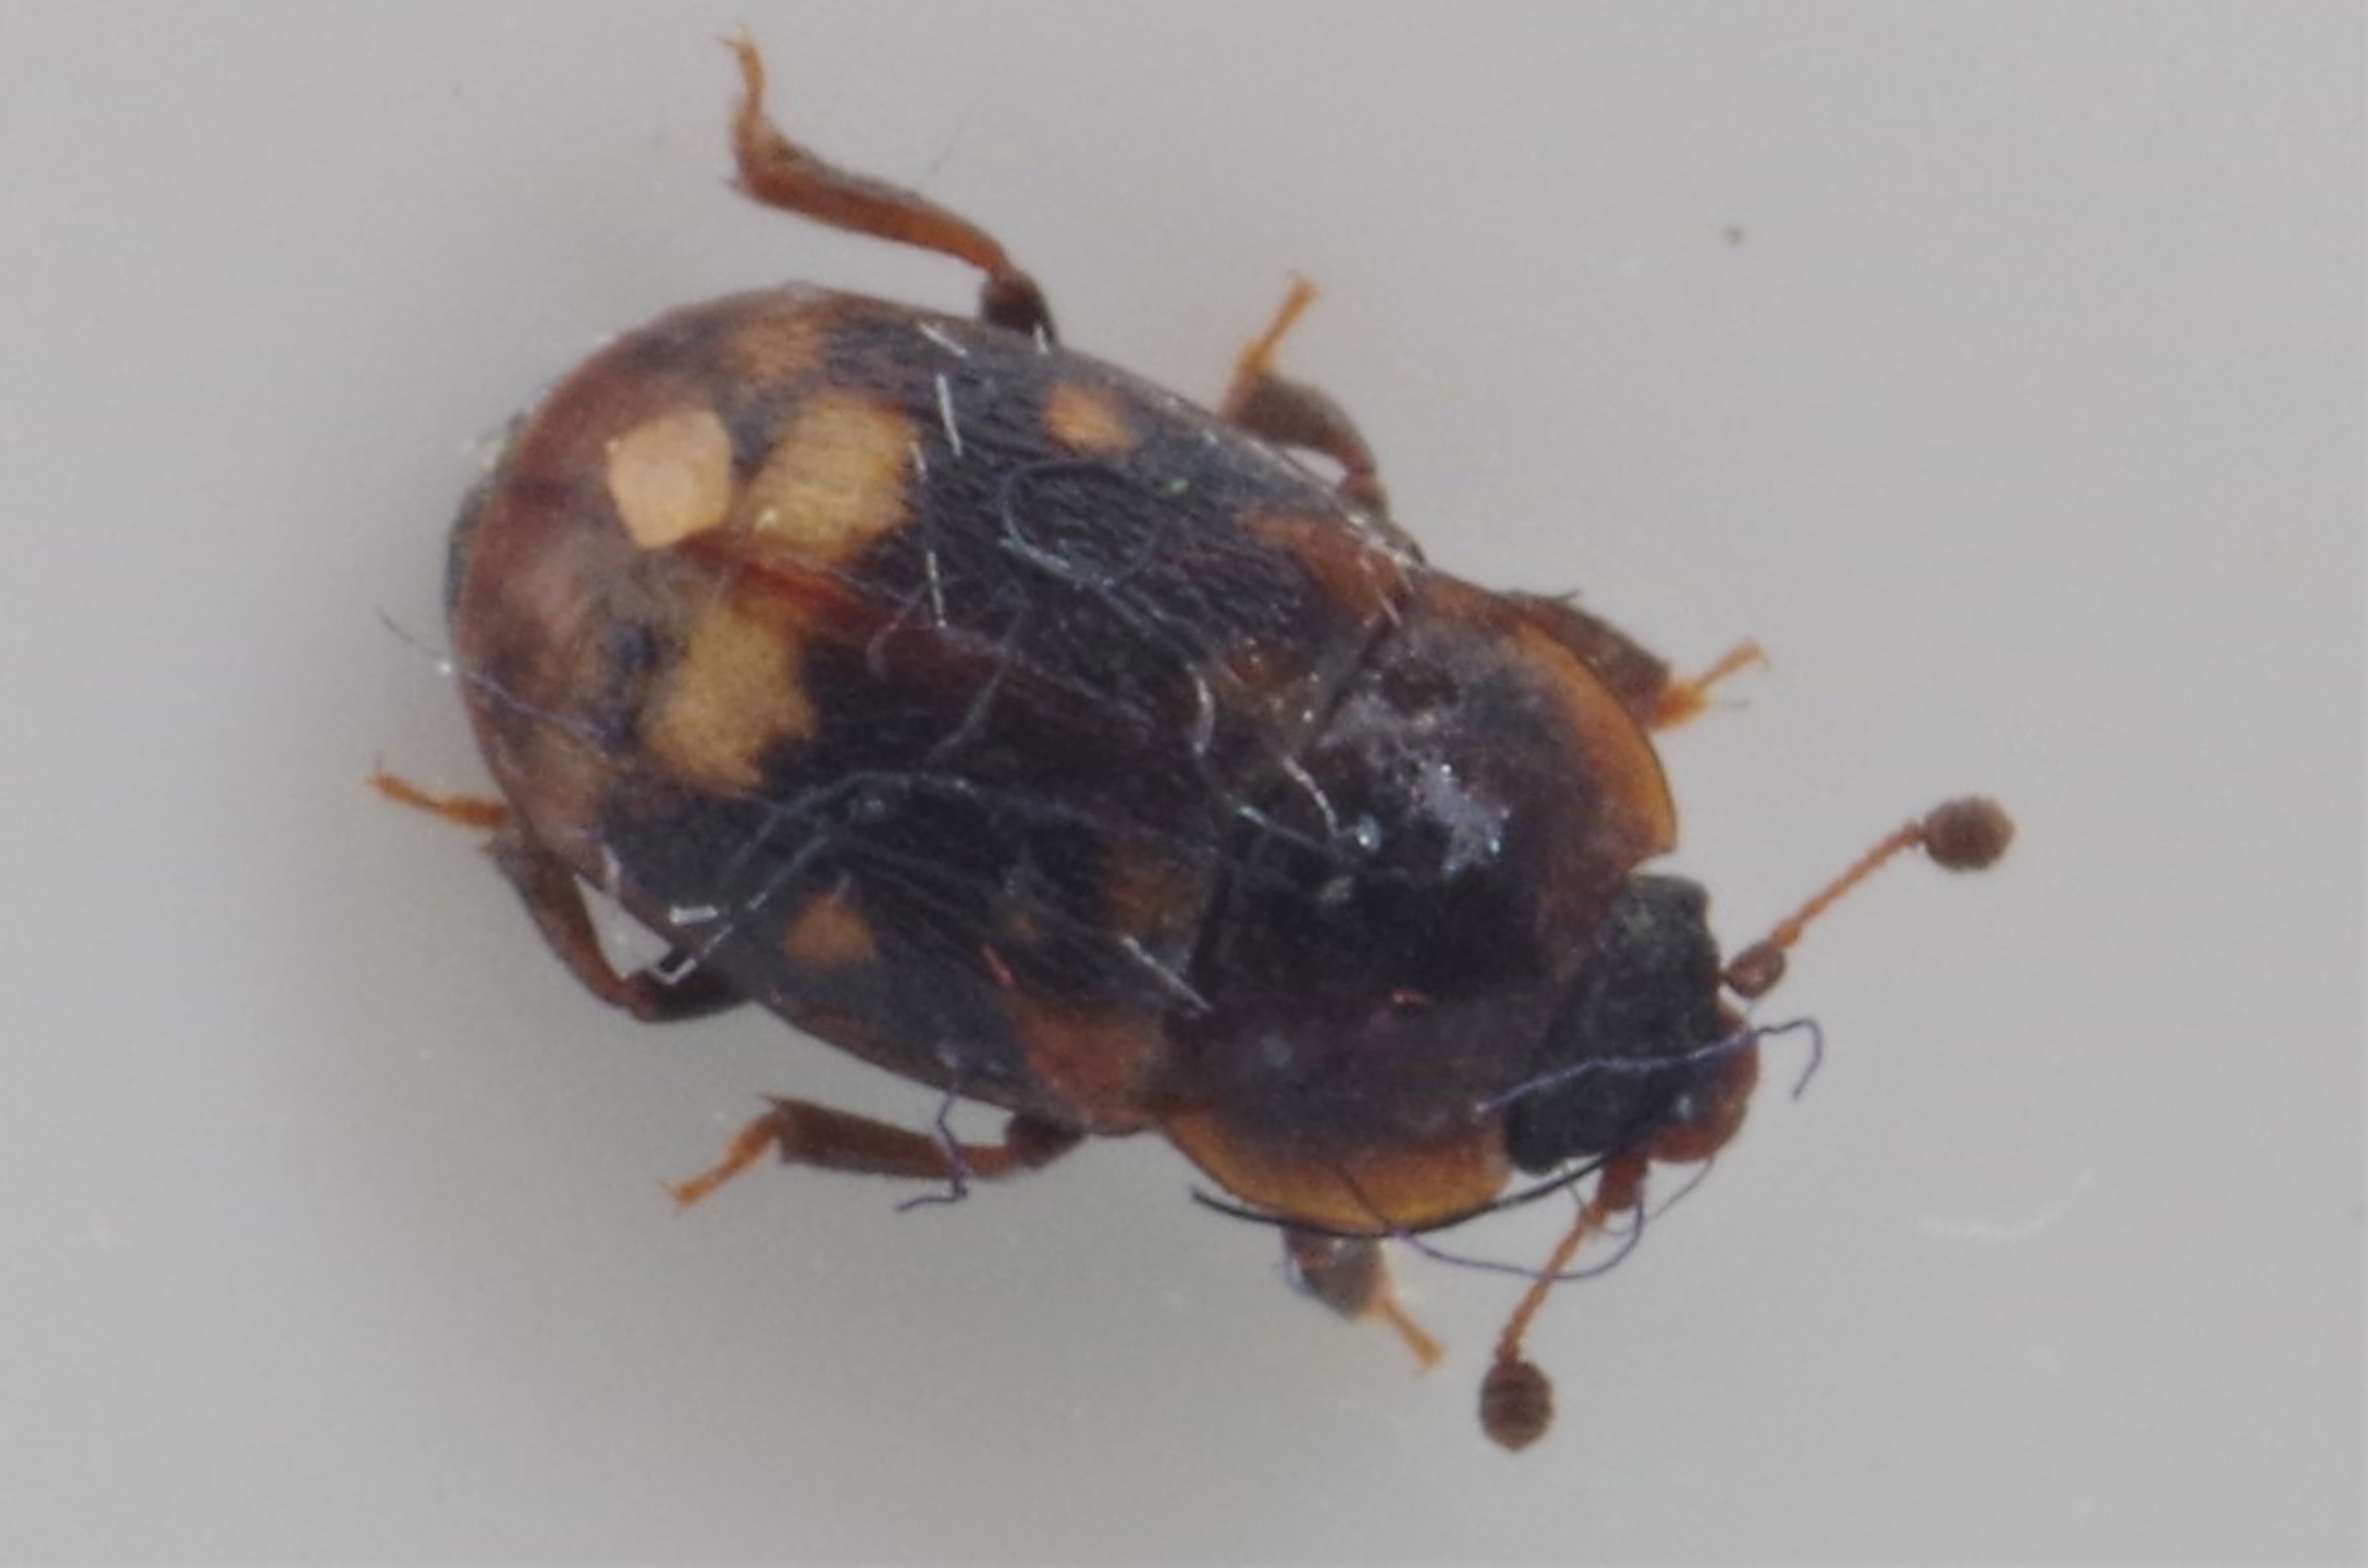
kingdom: Animalia
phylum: Arthropoda
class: Insecta
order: Coleoptera
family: Nitidulidae
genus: Omosita
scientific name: Omosita colon
